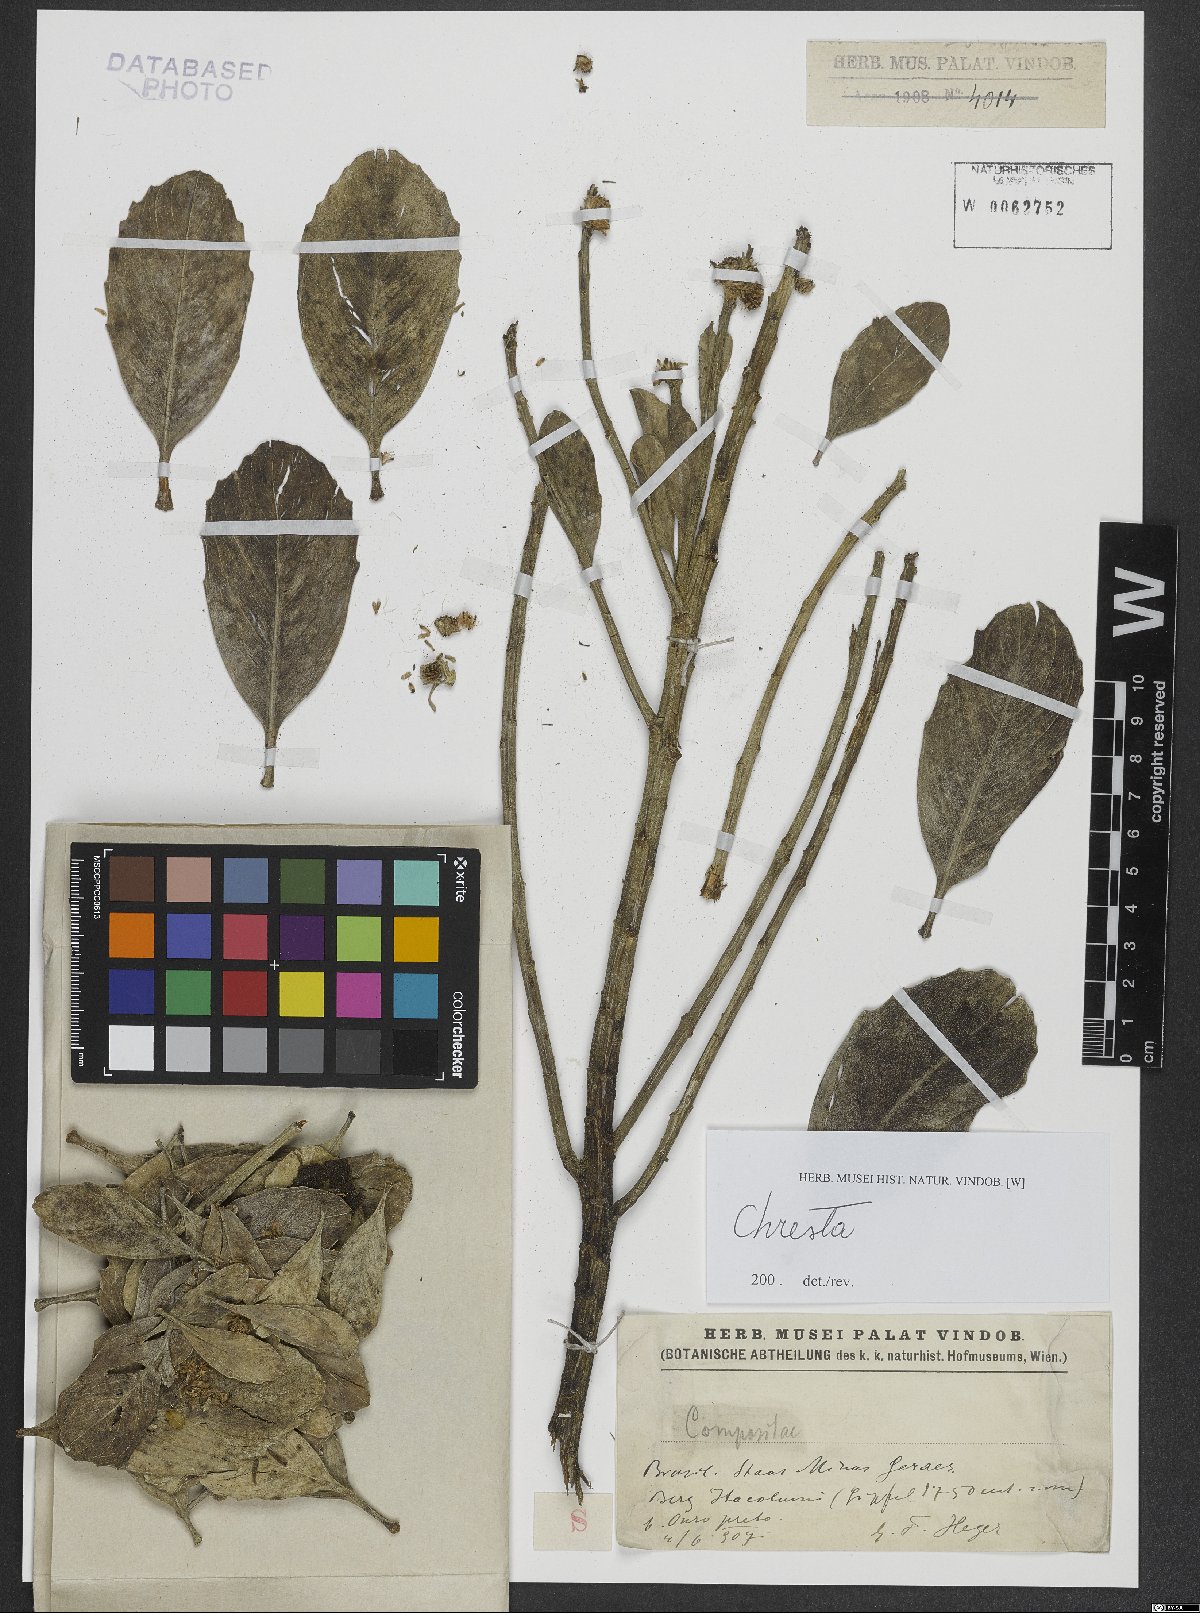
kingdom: Plantae
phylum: Tracheophyta
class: Magnoliopsida
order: Asterales
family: Asteraceae
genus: Chresta
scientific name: Chresta
